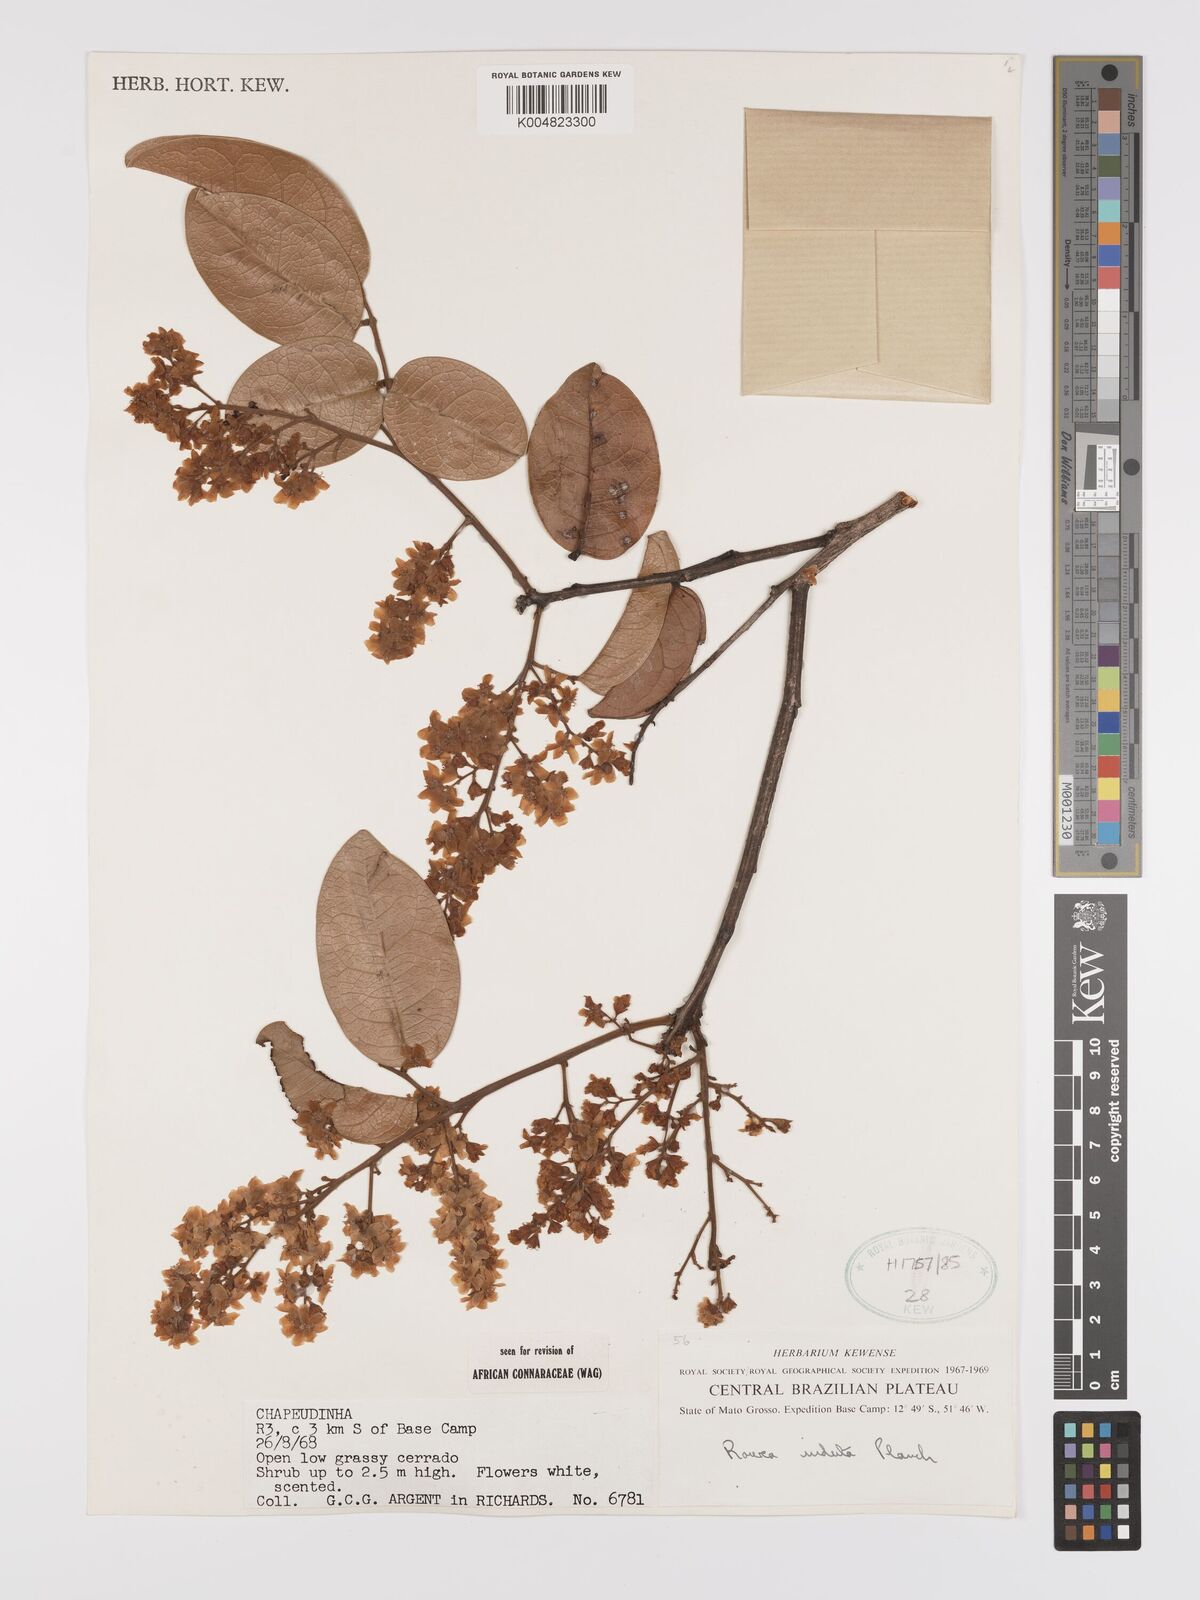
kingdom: Plantae
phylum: Tracheophyta
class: Magnoliopsida
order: Oxalidales
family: Connaraceae
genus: Rourea
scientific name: Rourea induta
